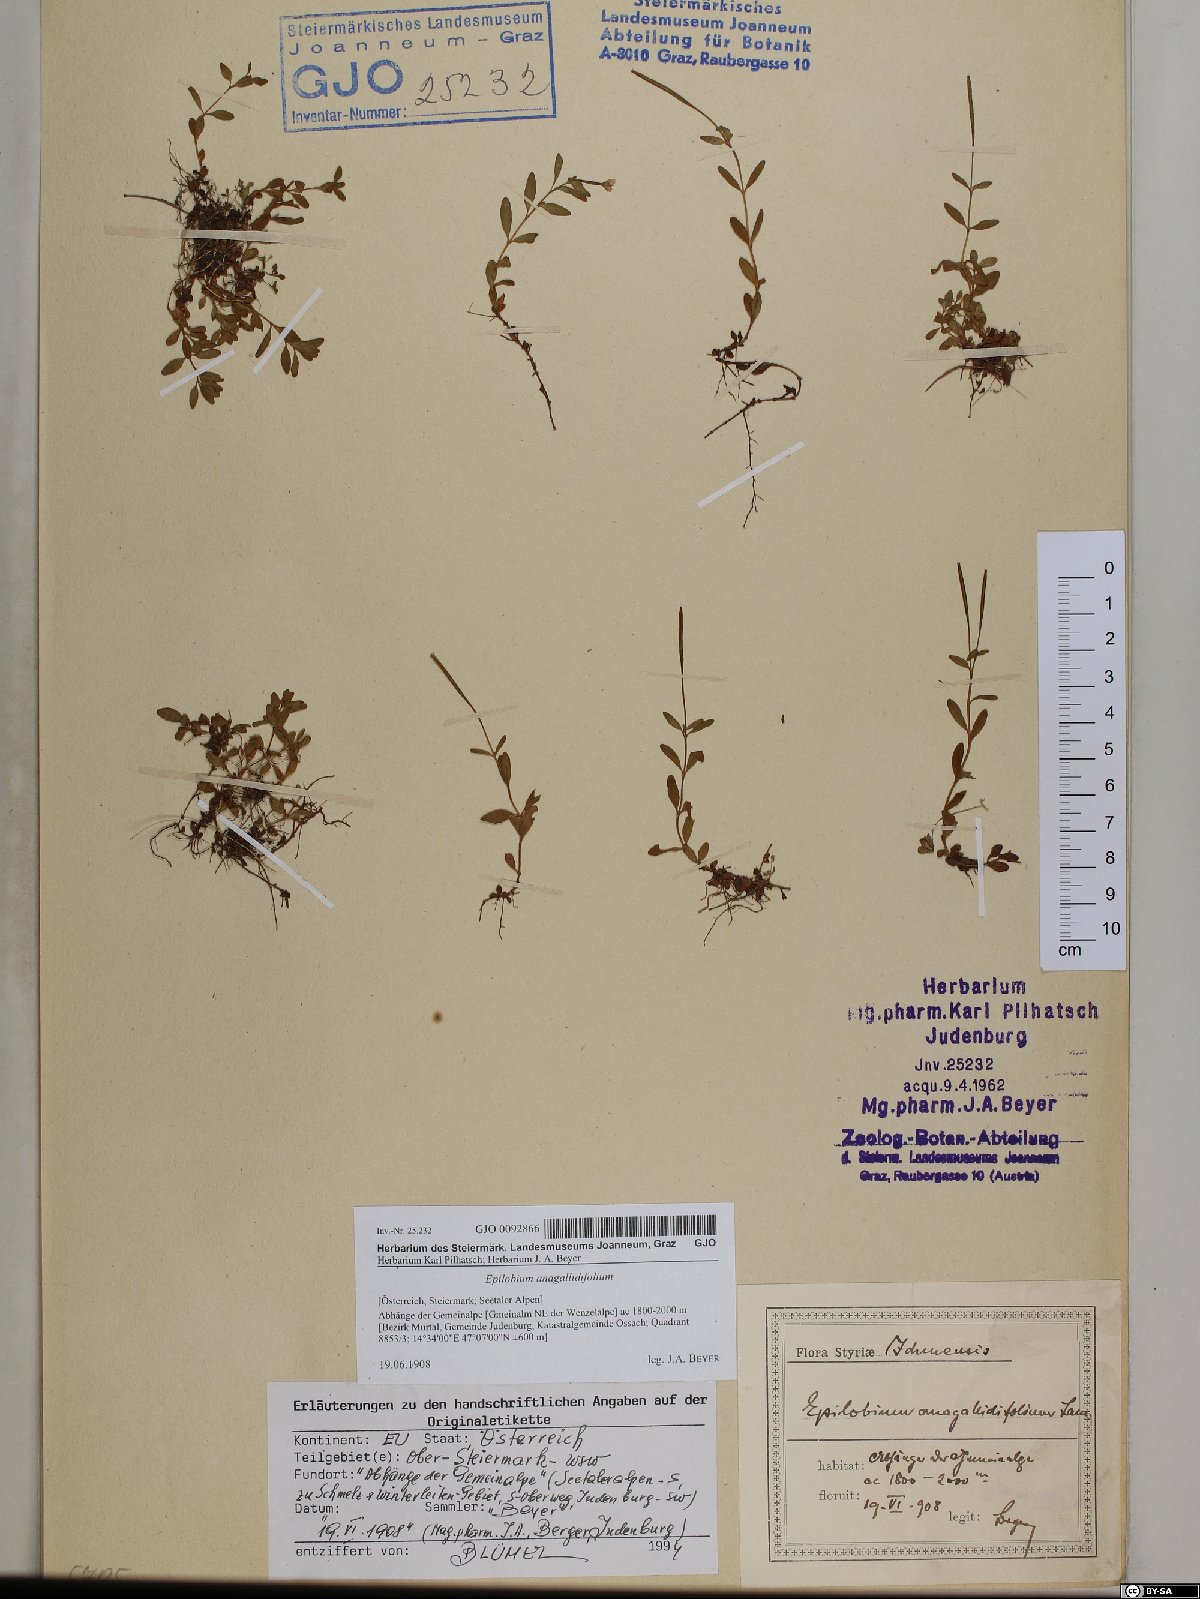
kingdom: Plantae
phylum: Tracheophyta
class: Magnoliopsida
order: Myrtales
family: Onagraceae
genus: Epilobium
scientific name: Epilobium anagallidifolium
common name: Alpine willowherb
